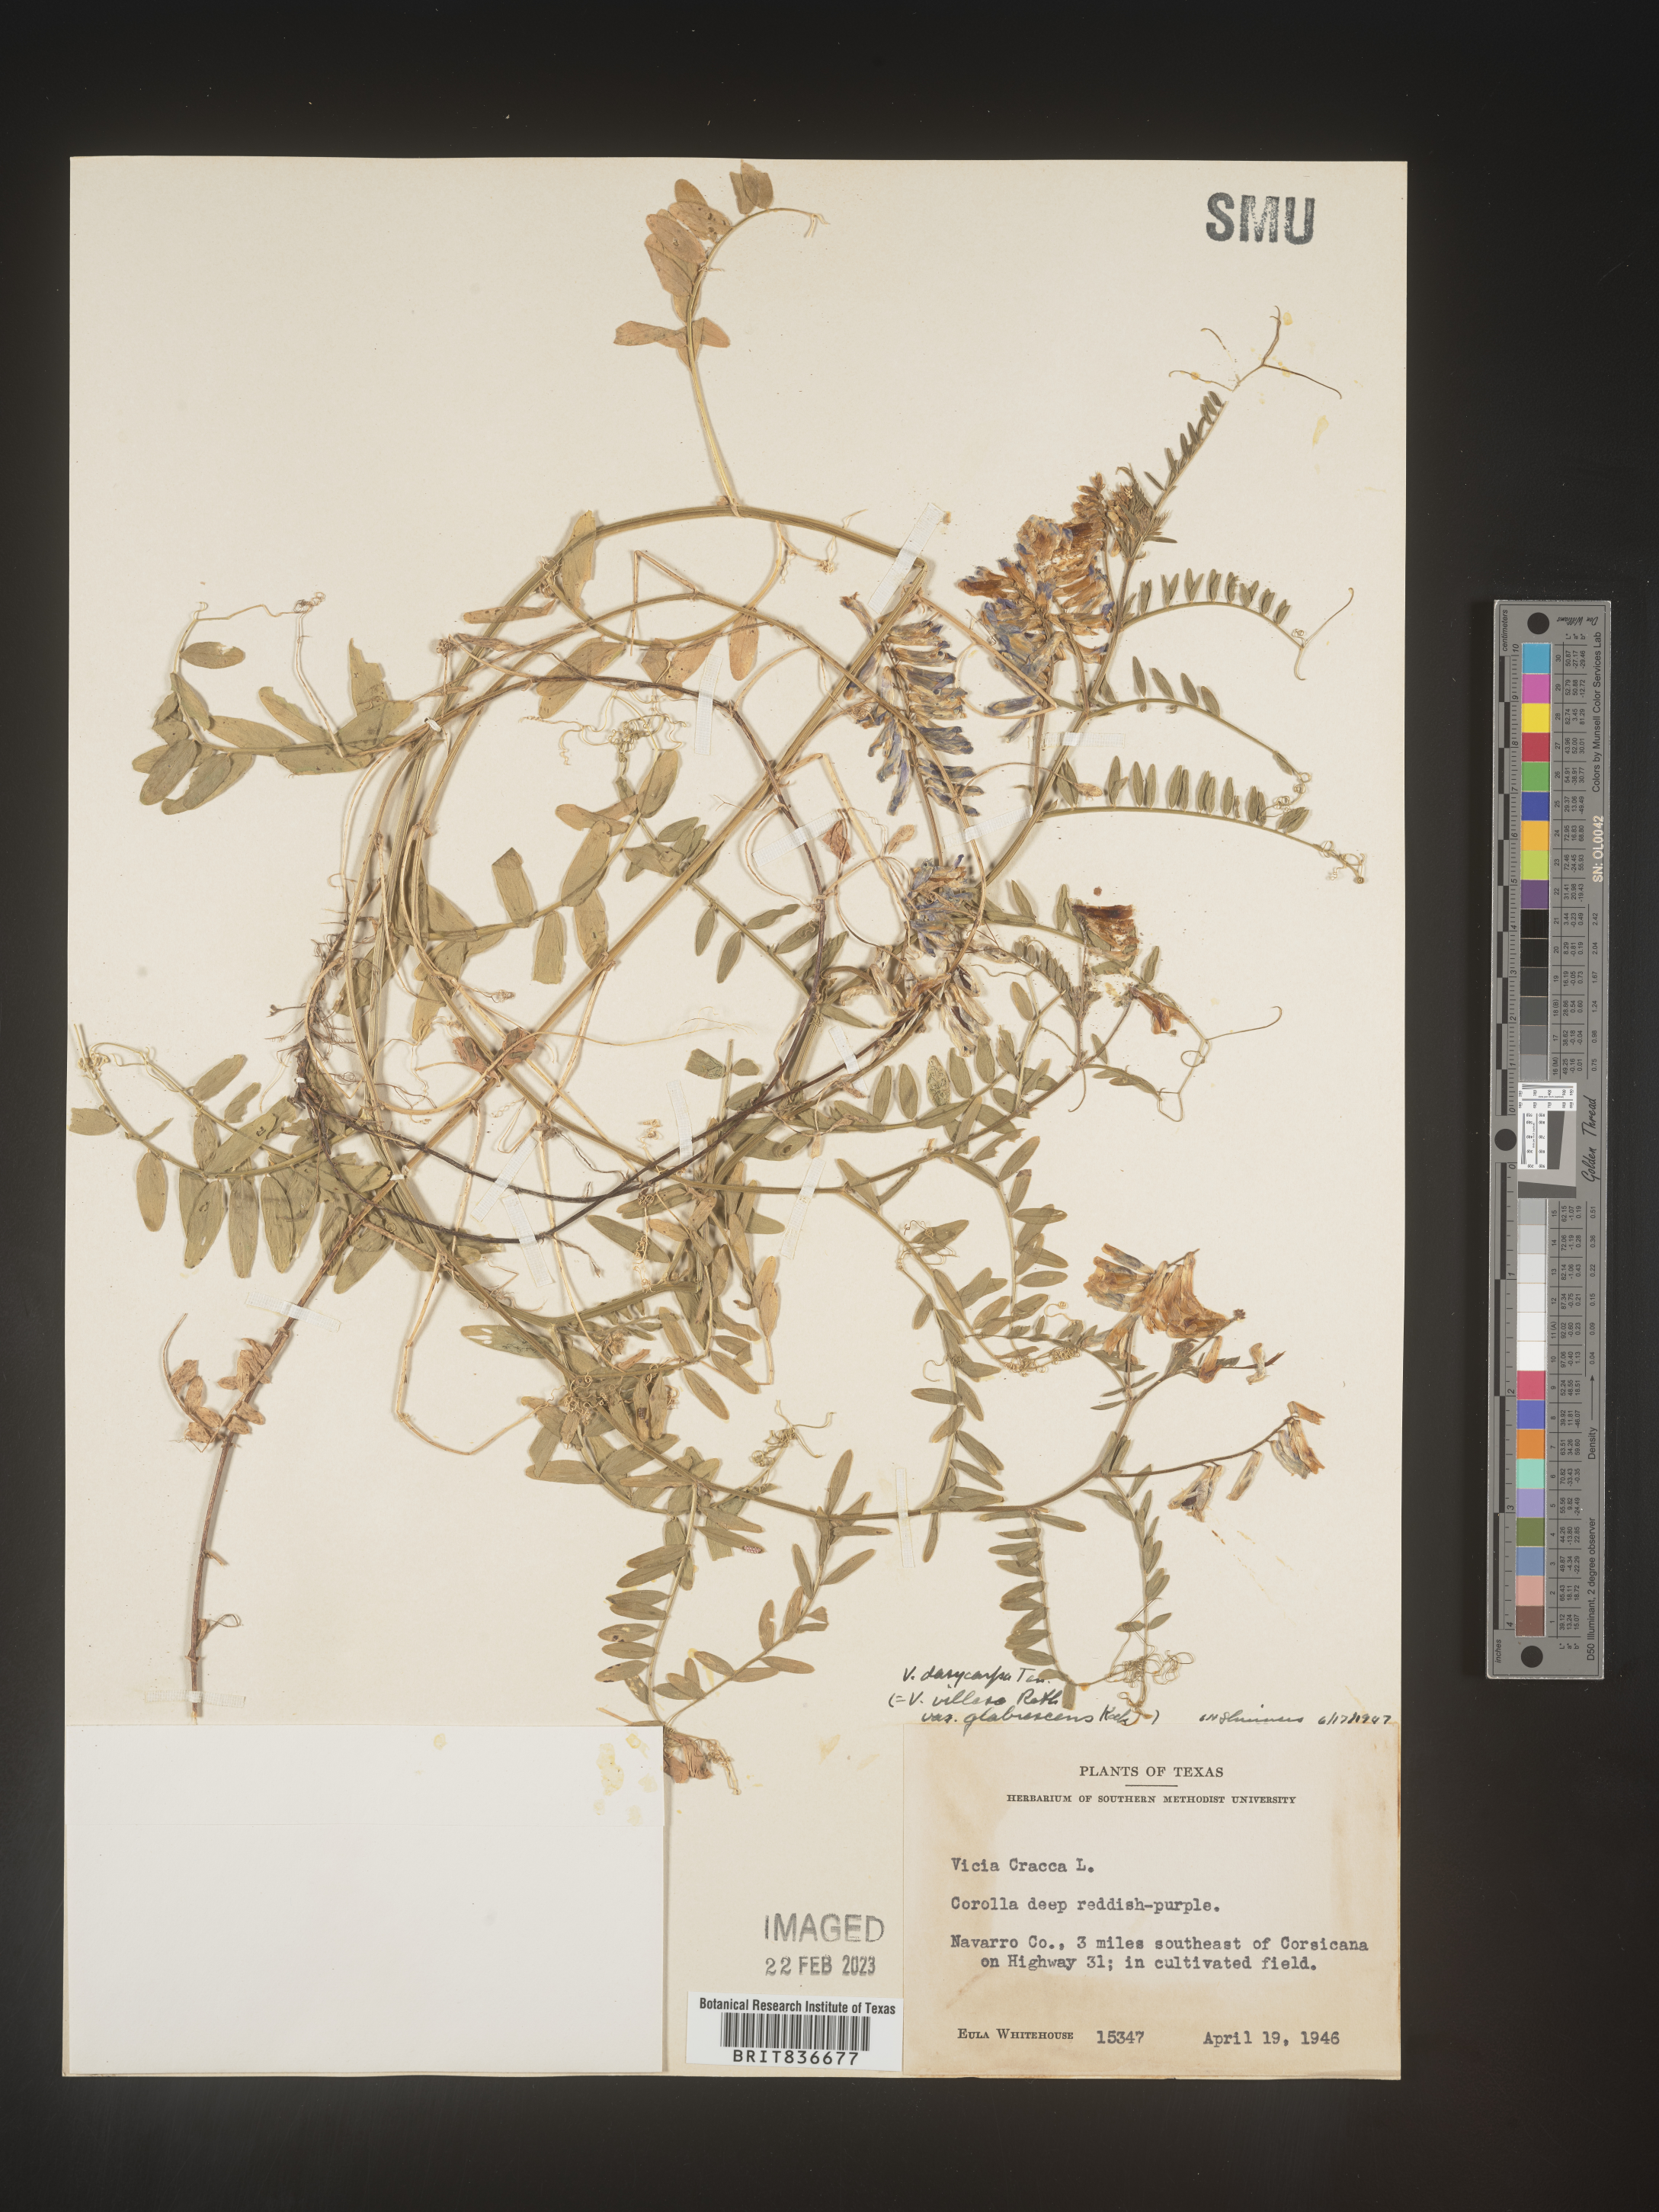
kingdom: Plantae
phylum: Tracheophyta
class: Magnoliopsida
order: Fabales
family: Fabaceae
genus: Vicia
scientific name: Vicia
